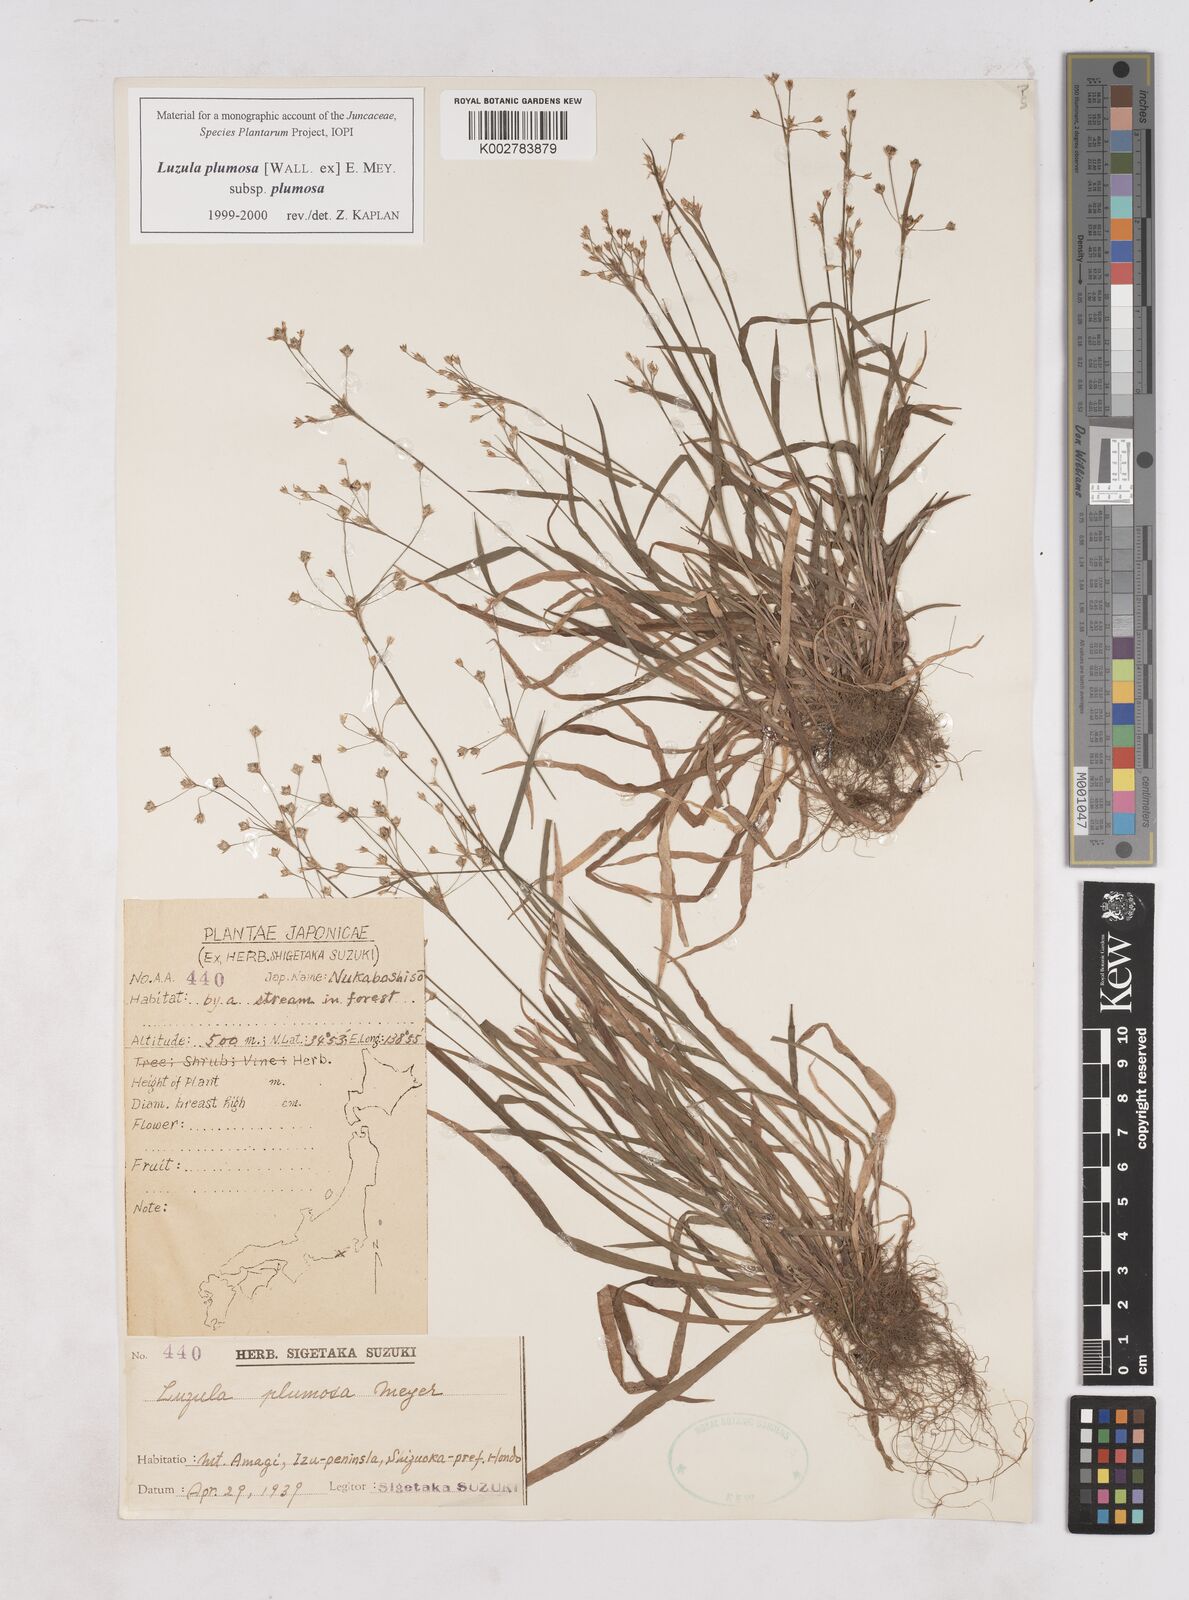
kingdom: Plantae
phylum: Tracheophyta
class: Liliopsida
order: Poales
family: Juncaceae
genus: Luzula
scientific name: Luzula plumosa
